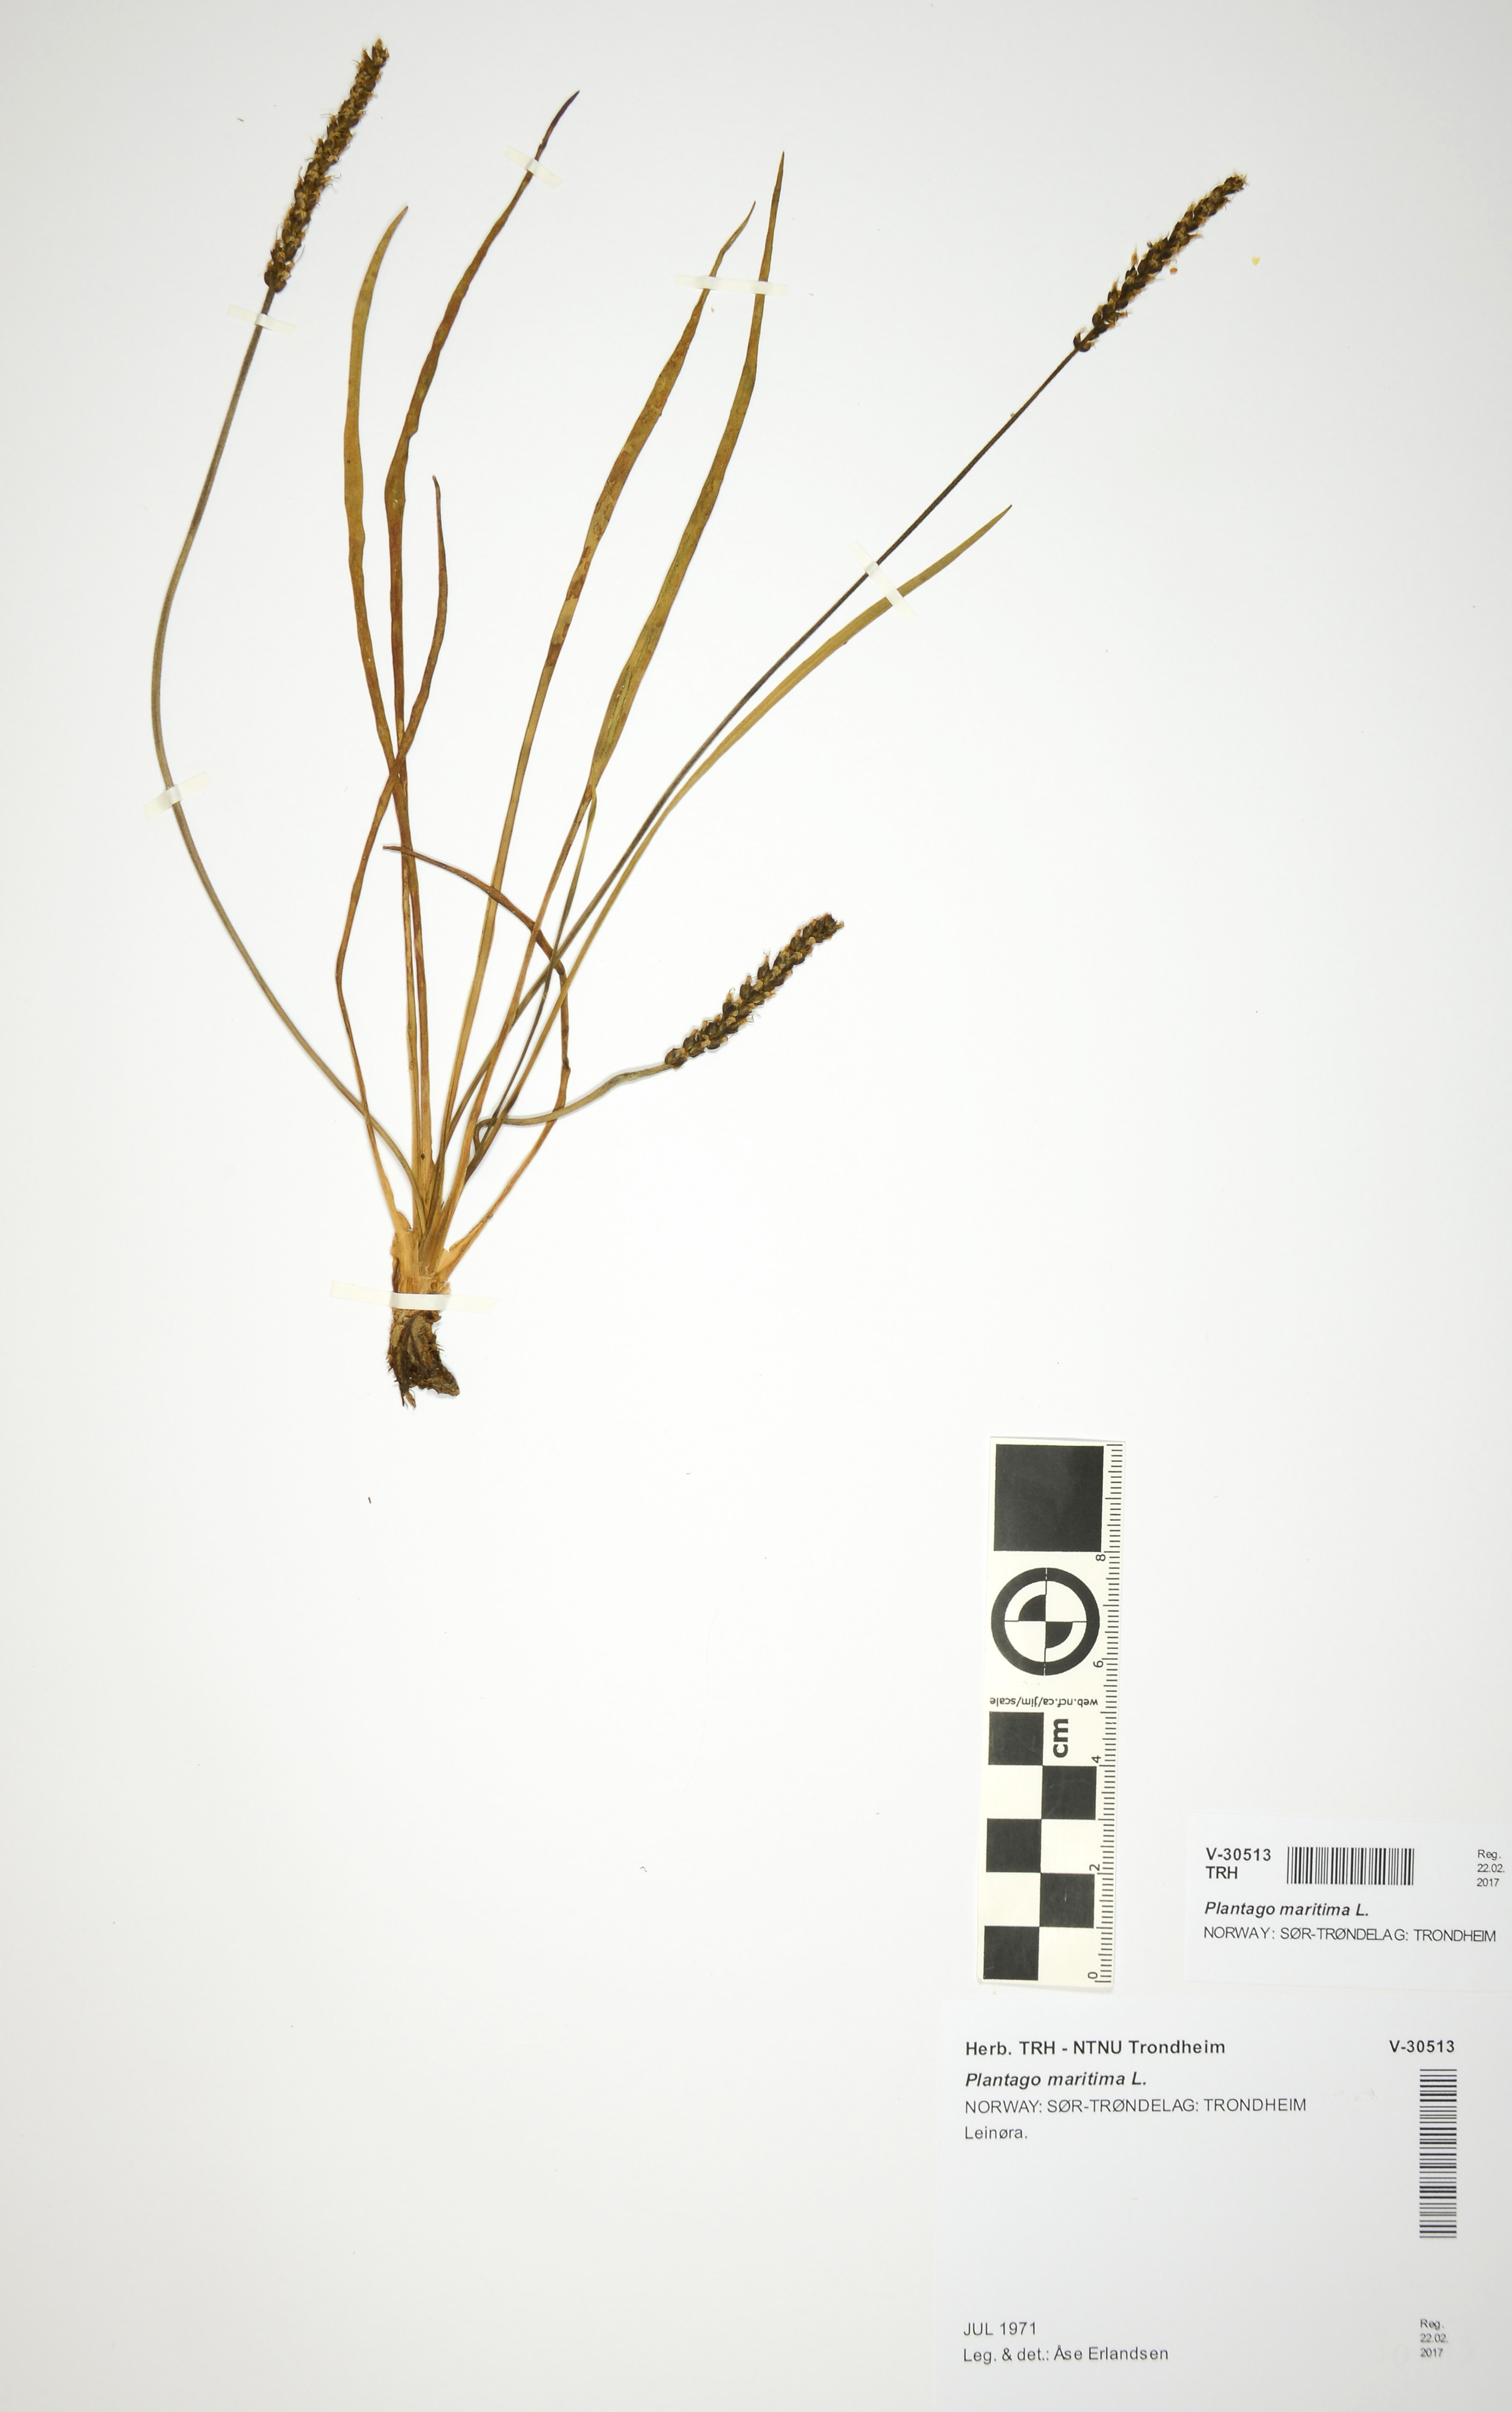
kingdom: Plantae
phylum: Tracheophyta
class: Magnoliopsida
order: Lamiales
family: Plantaginaceae
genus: Plantago
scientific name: Plantago maritima
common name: Sea plantain
